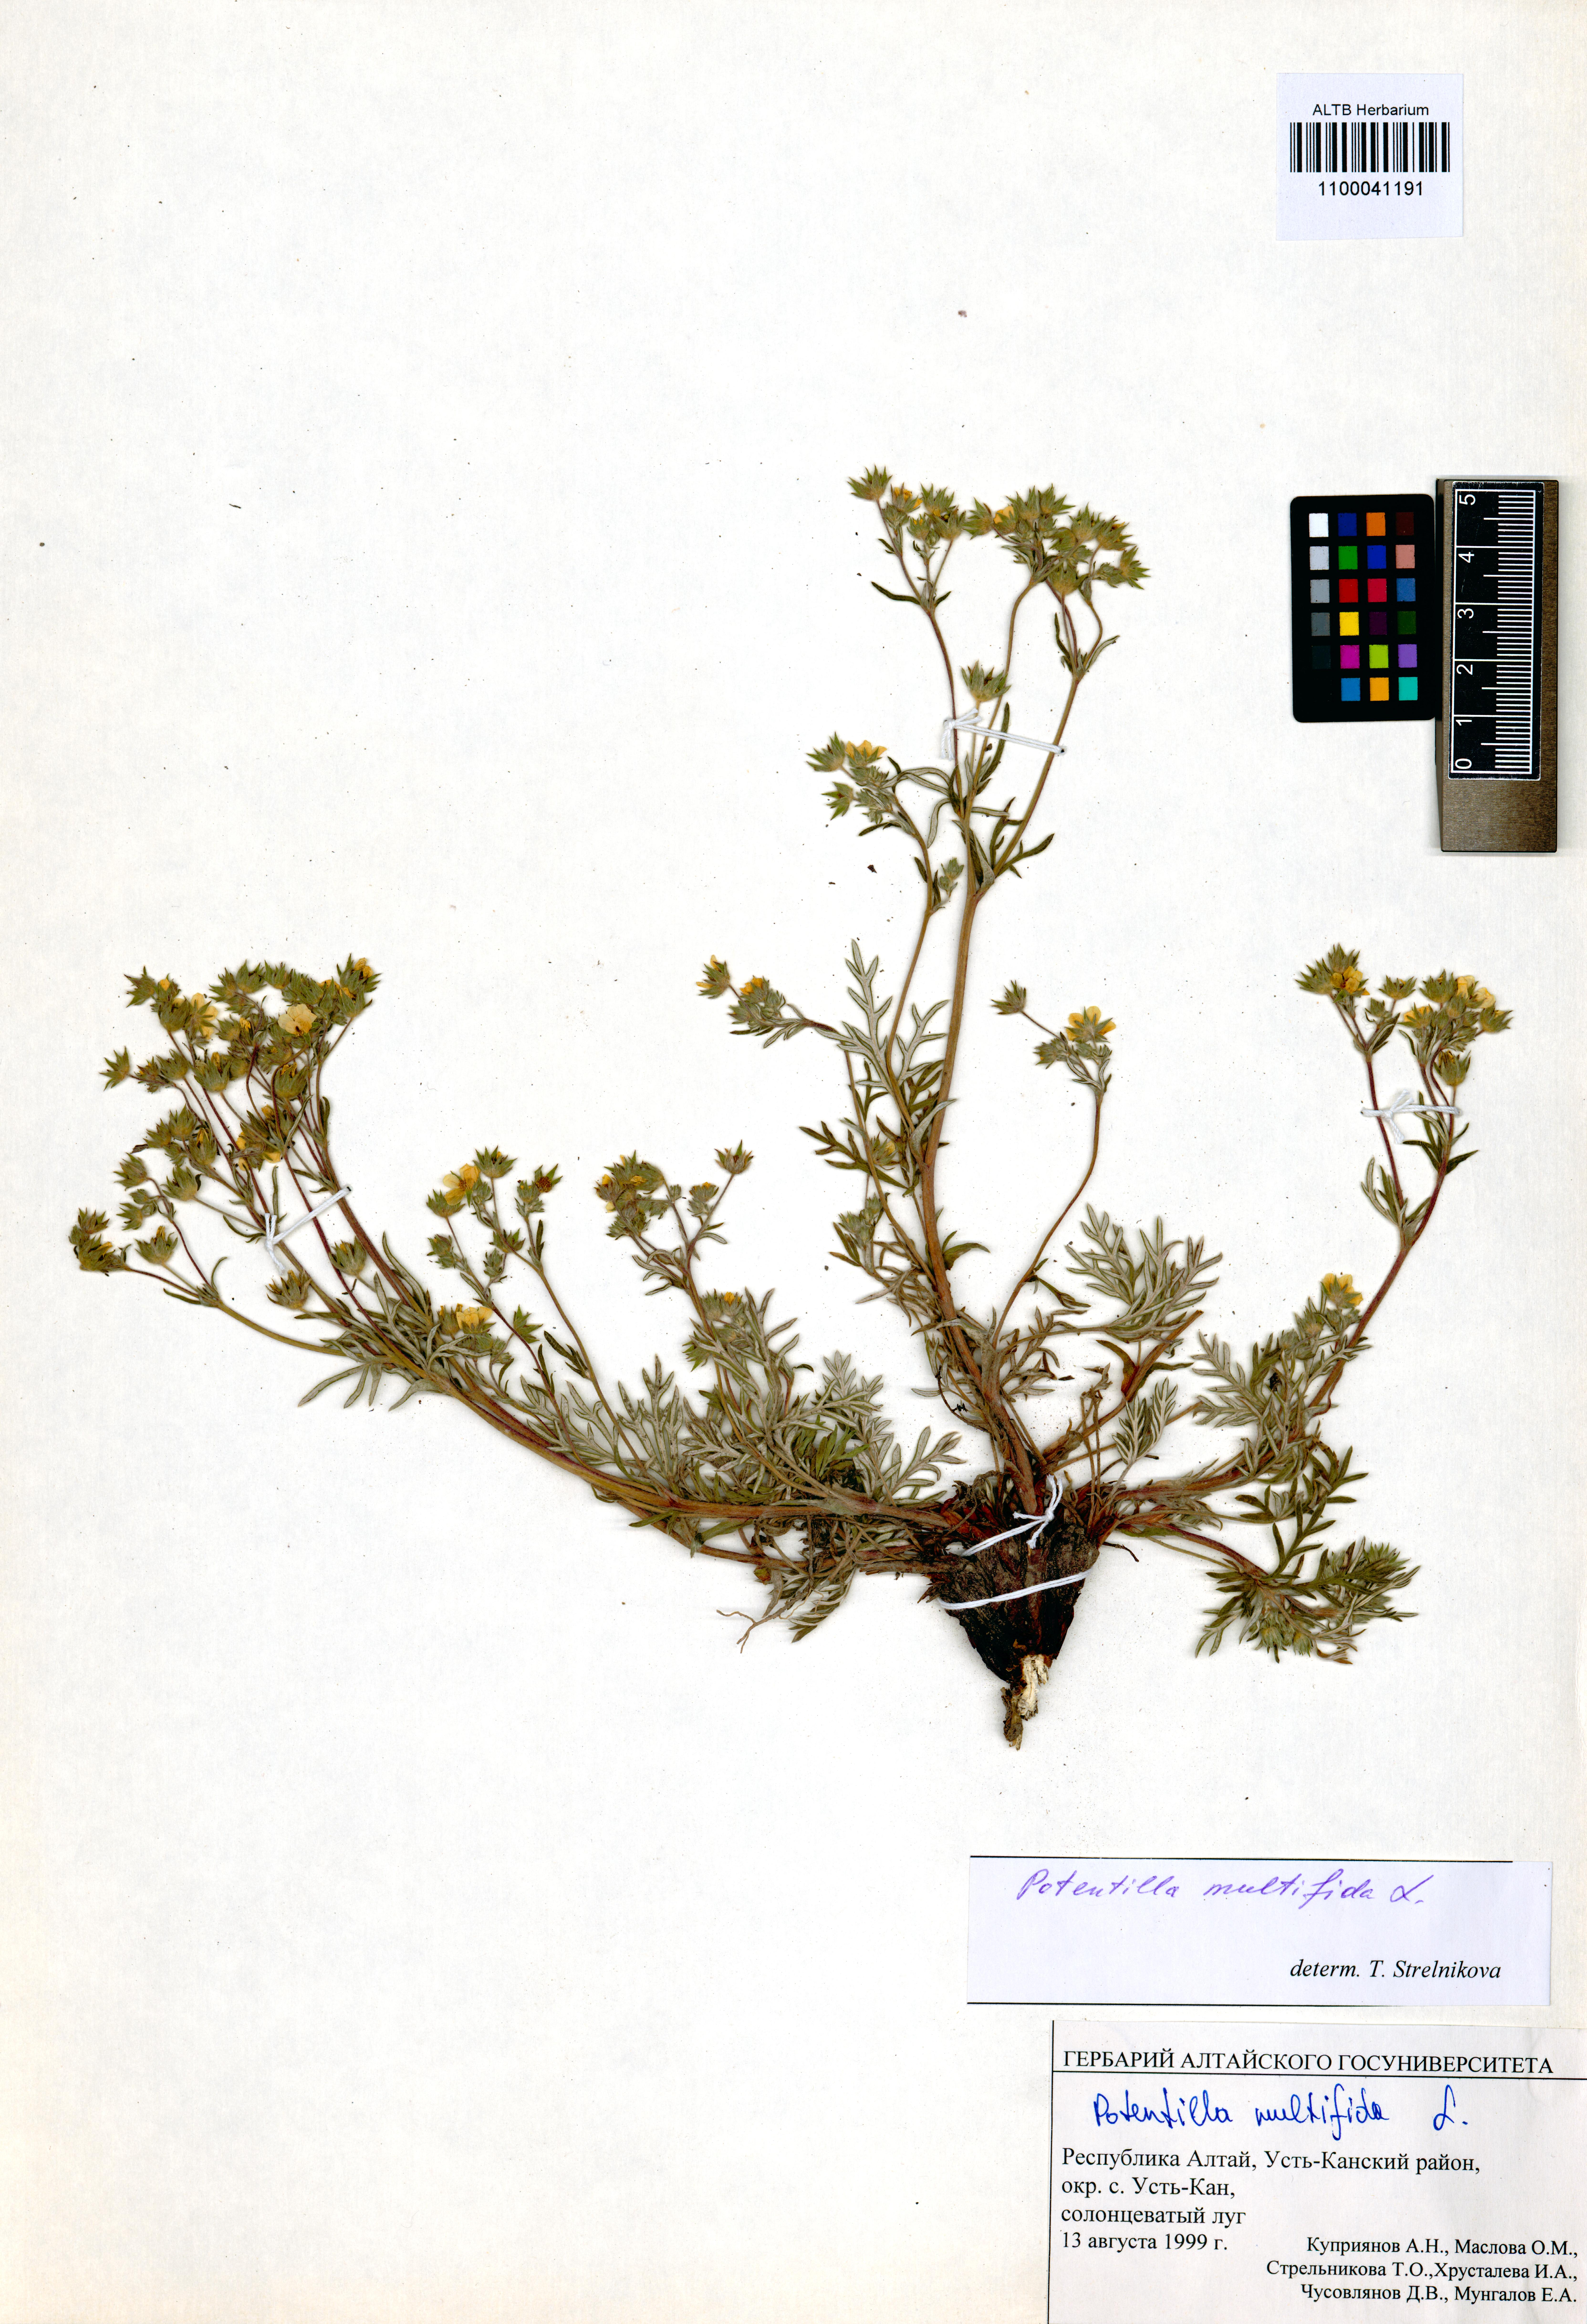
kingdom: Plantae
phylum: Tracheophyta
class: Magnoliopsida
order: Rosales
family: Rosaceae
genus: Potentilla
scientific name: Potentilla multifida
